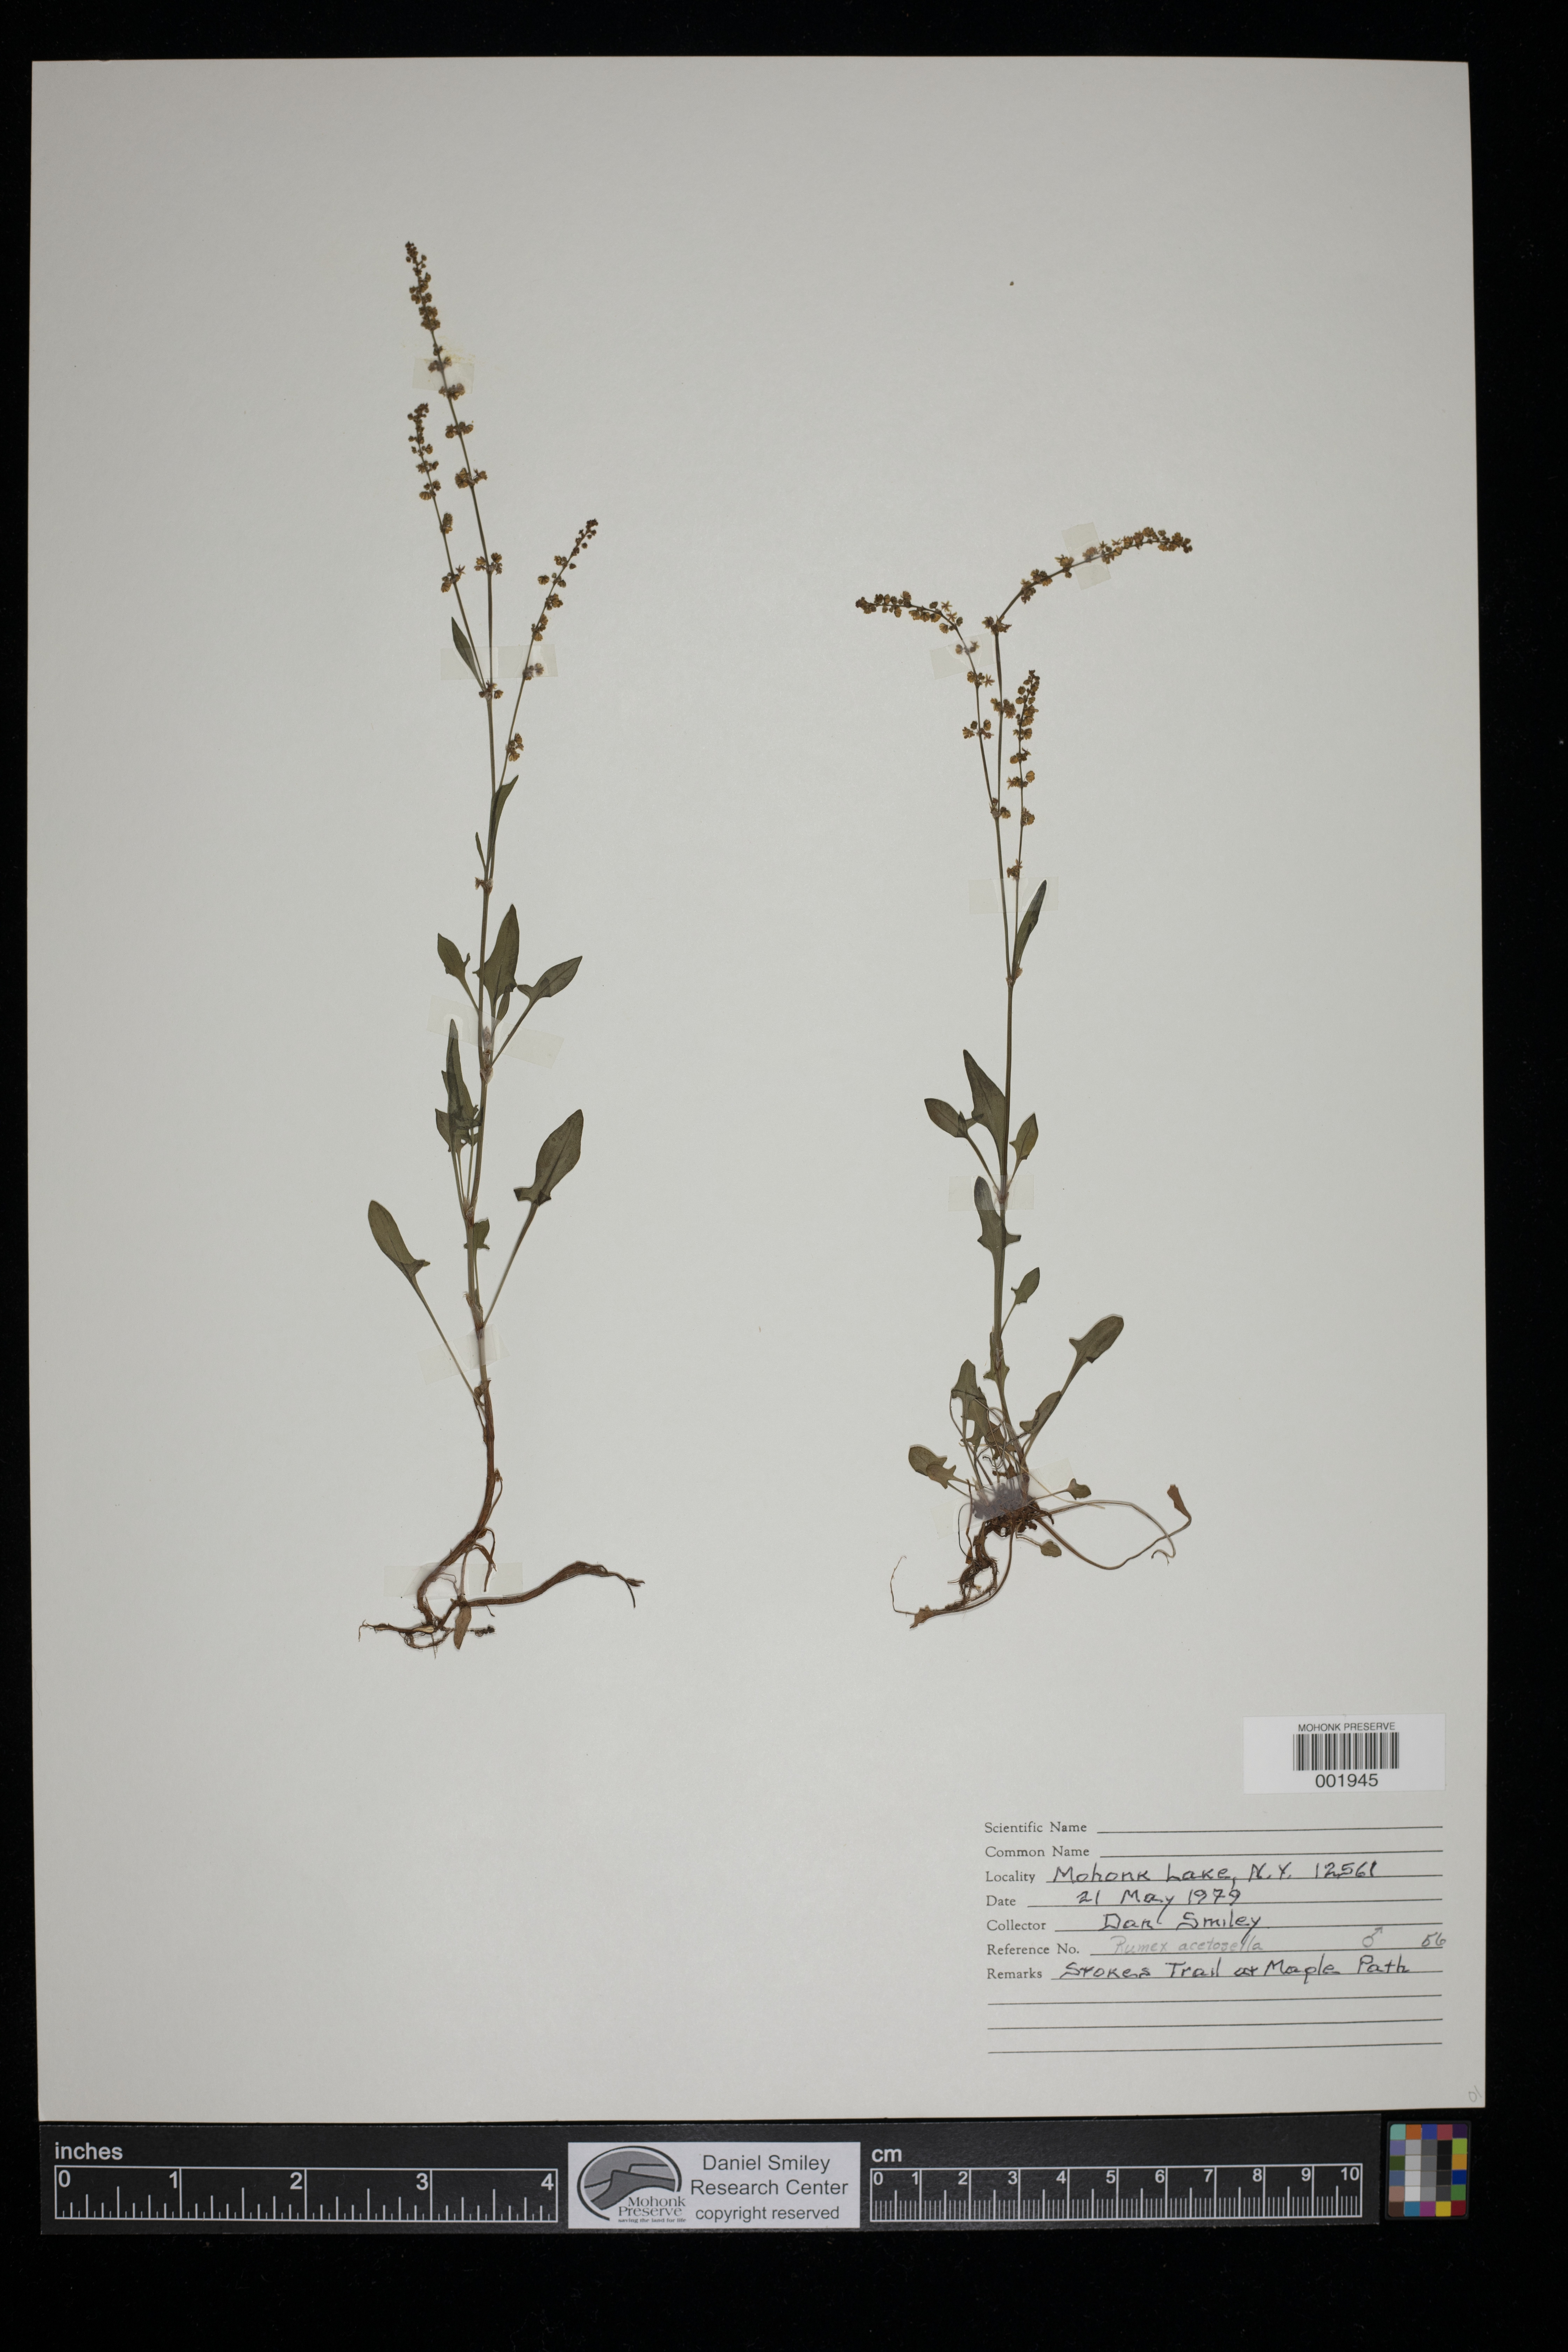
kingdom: Plantae
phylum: Tracheophyta
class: Magnoliopsida
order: Caryophyllales
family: Polygonaceae
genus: Rumex
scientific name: Rumex acetosella
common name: Common sheep sorrel
